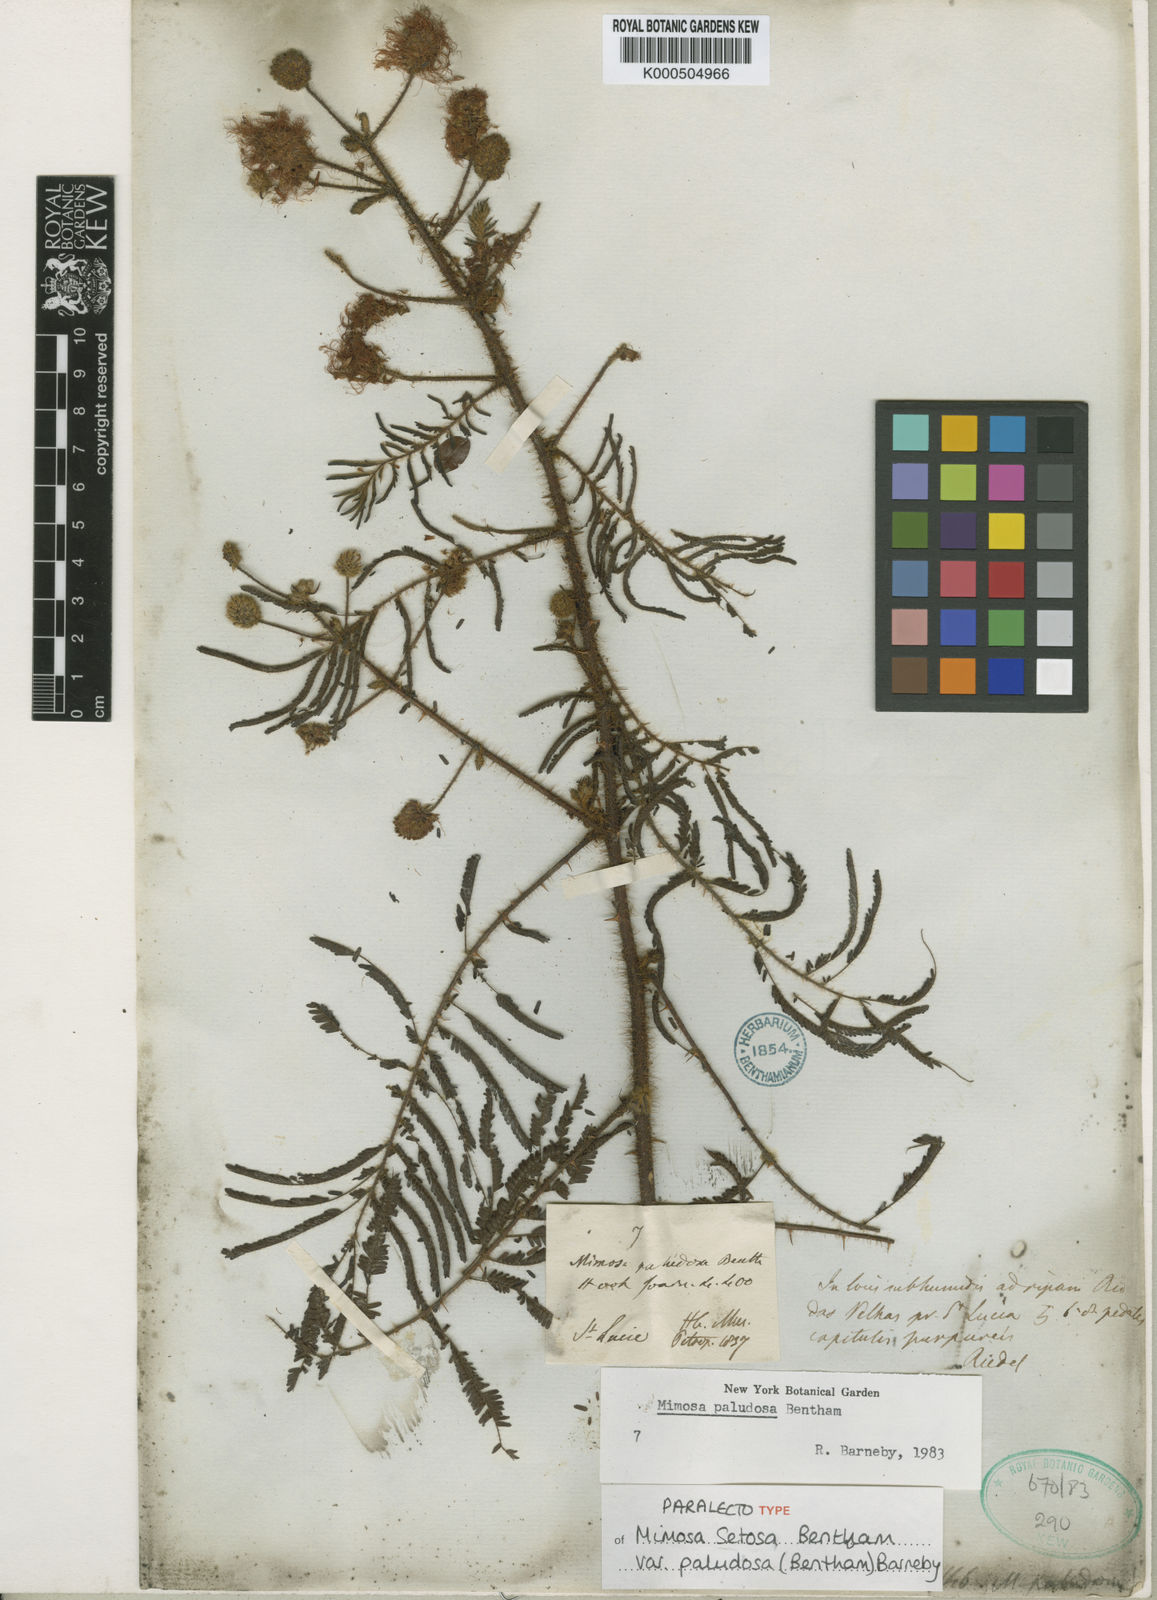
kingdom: Plantae
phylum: Tracheophyta
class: Magnoliopsida
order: Fabales
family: Fabaceae
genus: Mimosa
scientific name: Mimosa paludosa
